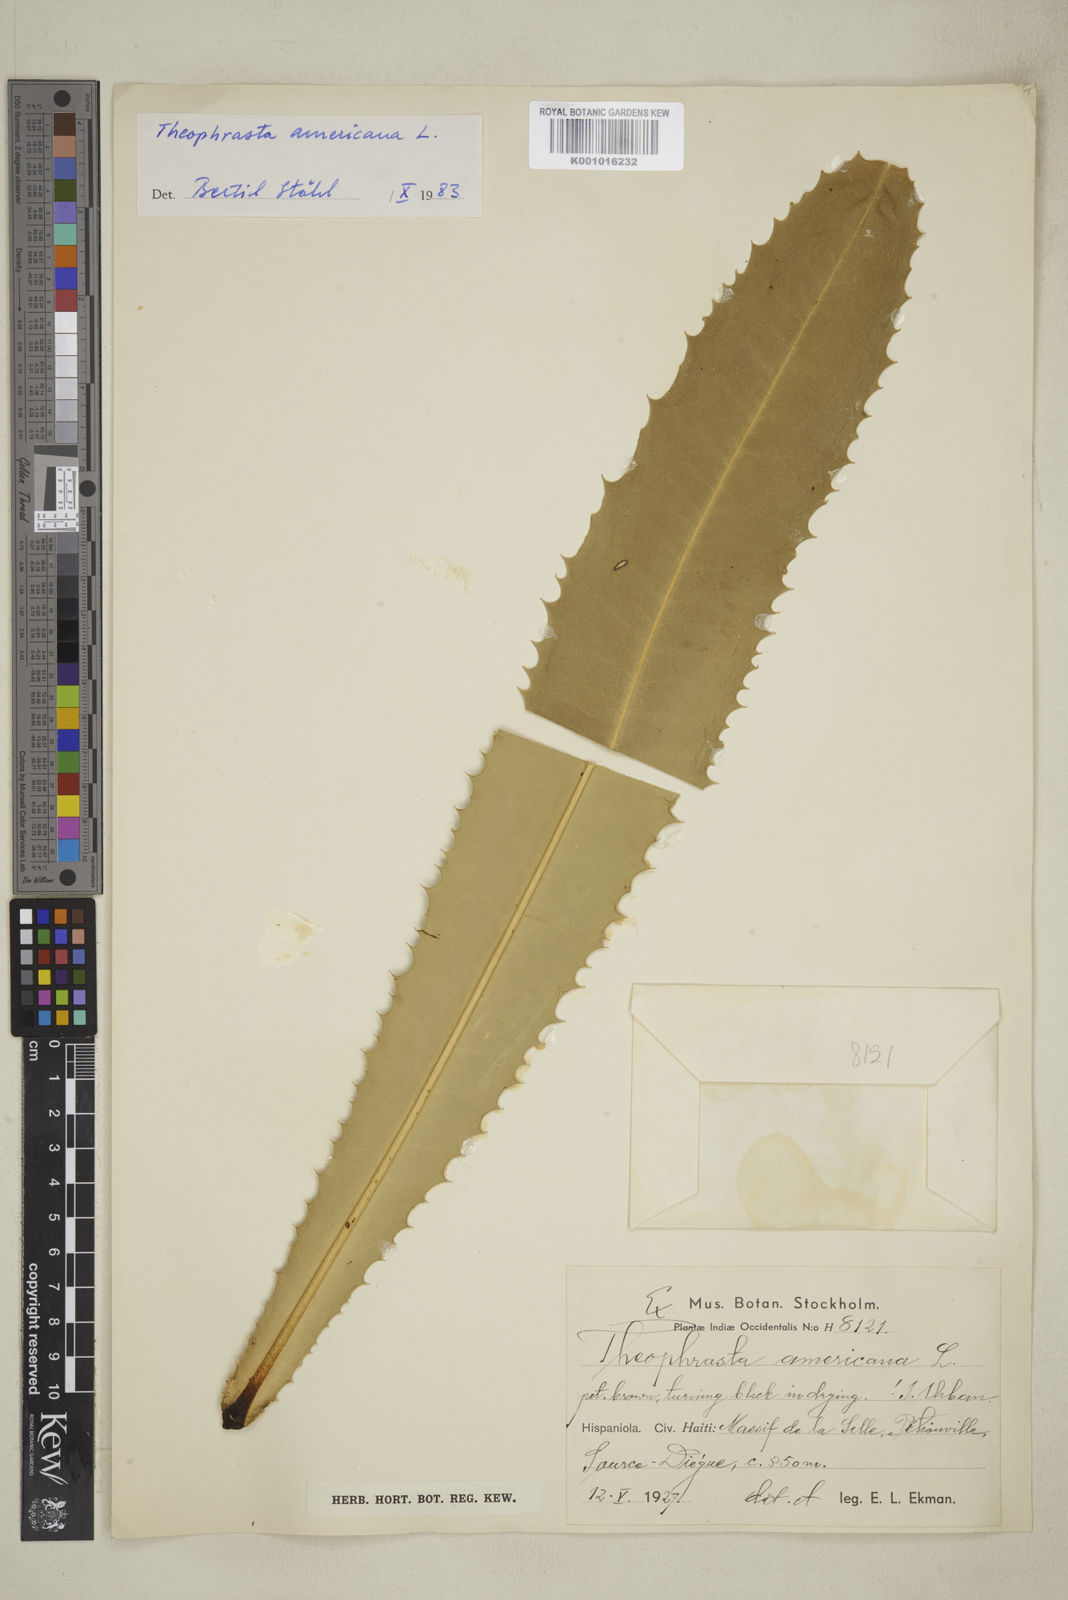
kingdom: Plantae
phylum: Tracheophyta
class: Magnoliopsida
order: Ericales
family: Primulaceae
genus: Theophrasta
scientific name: Theophrasta americana
